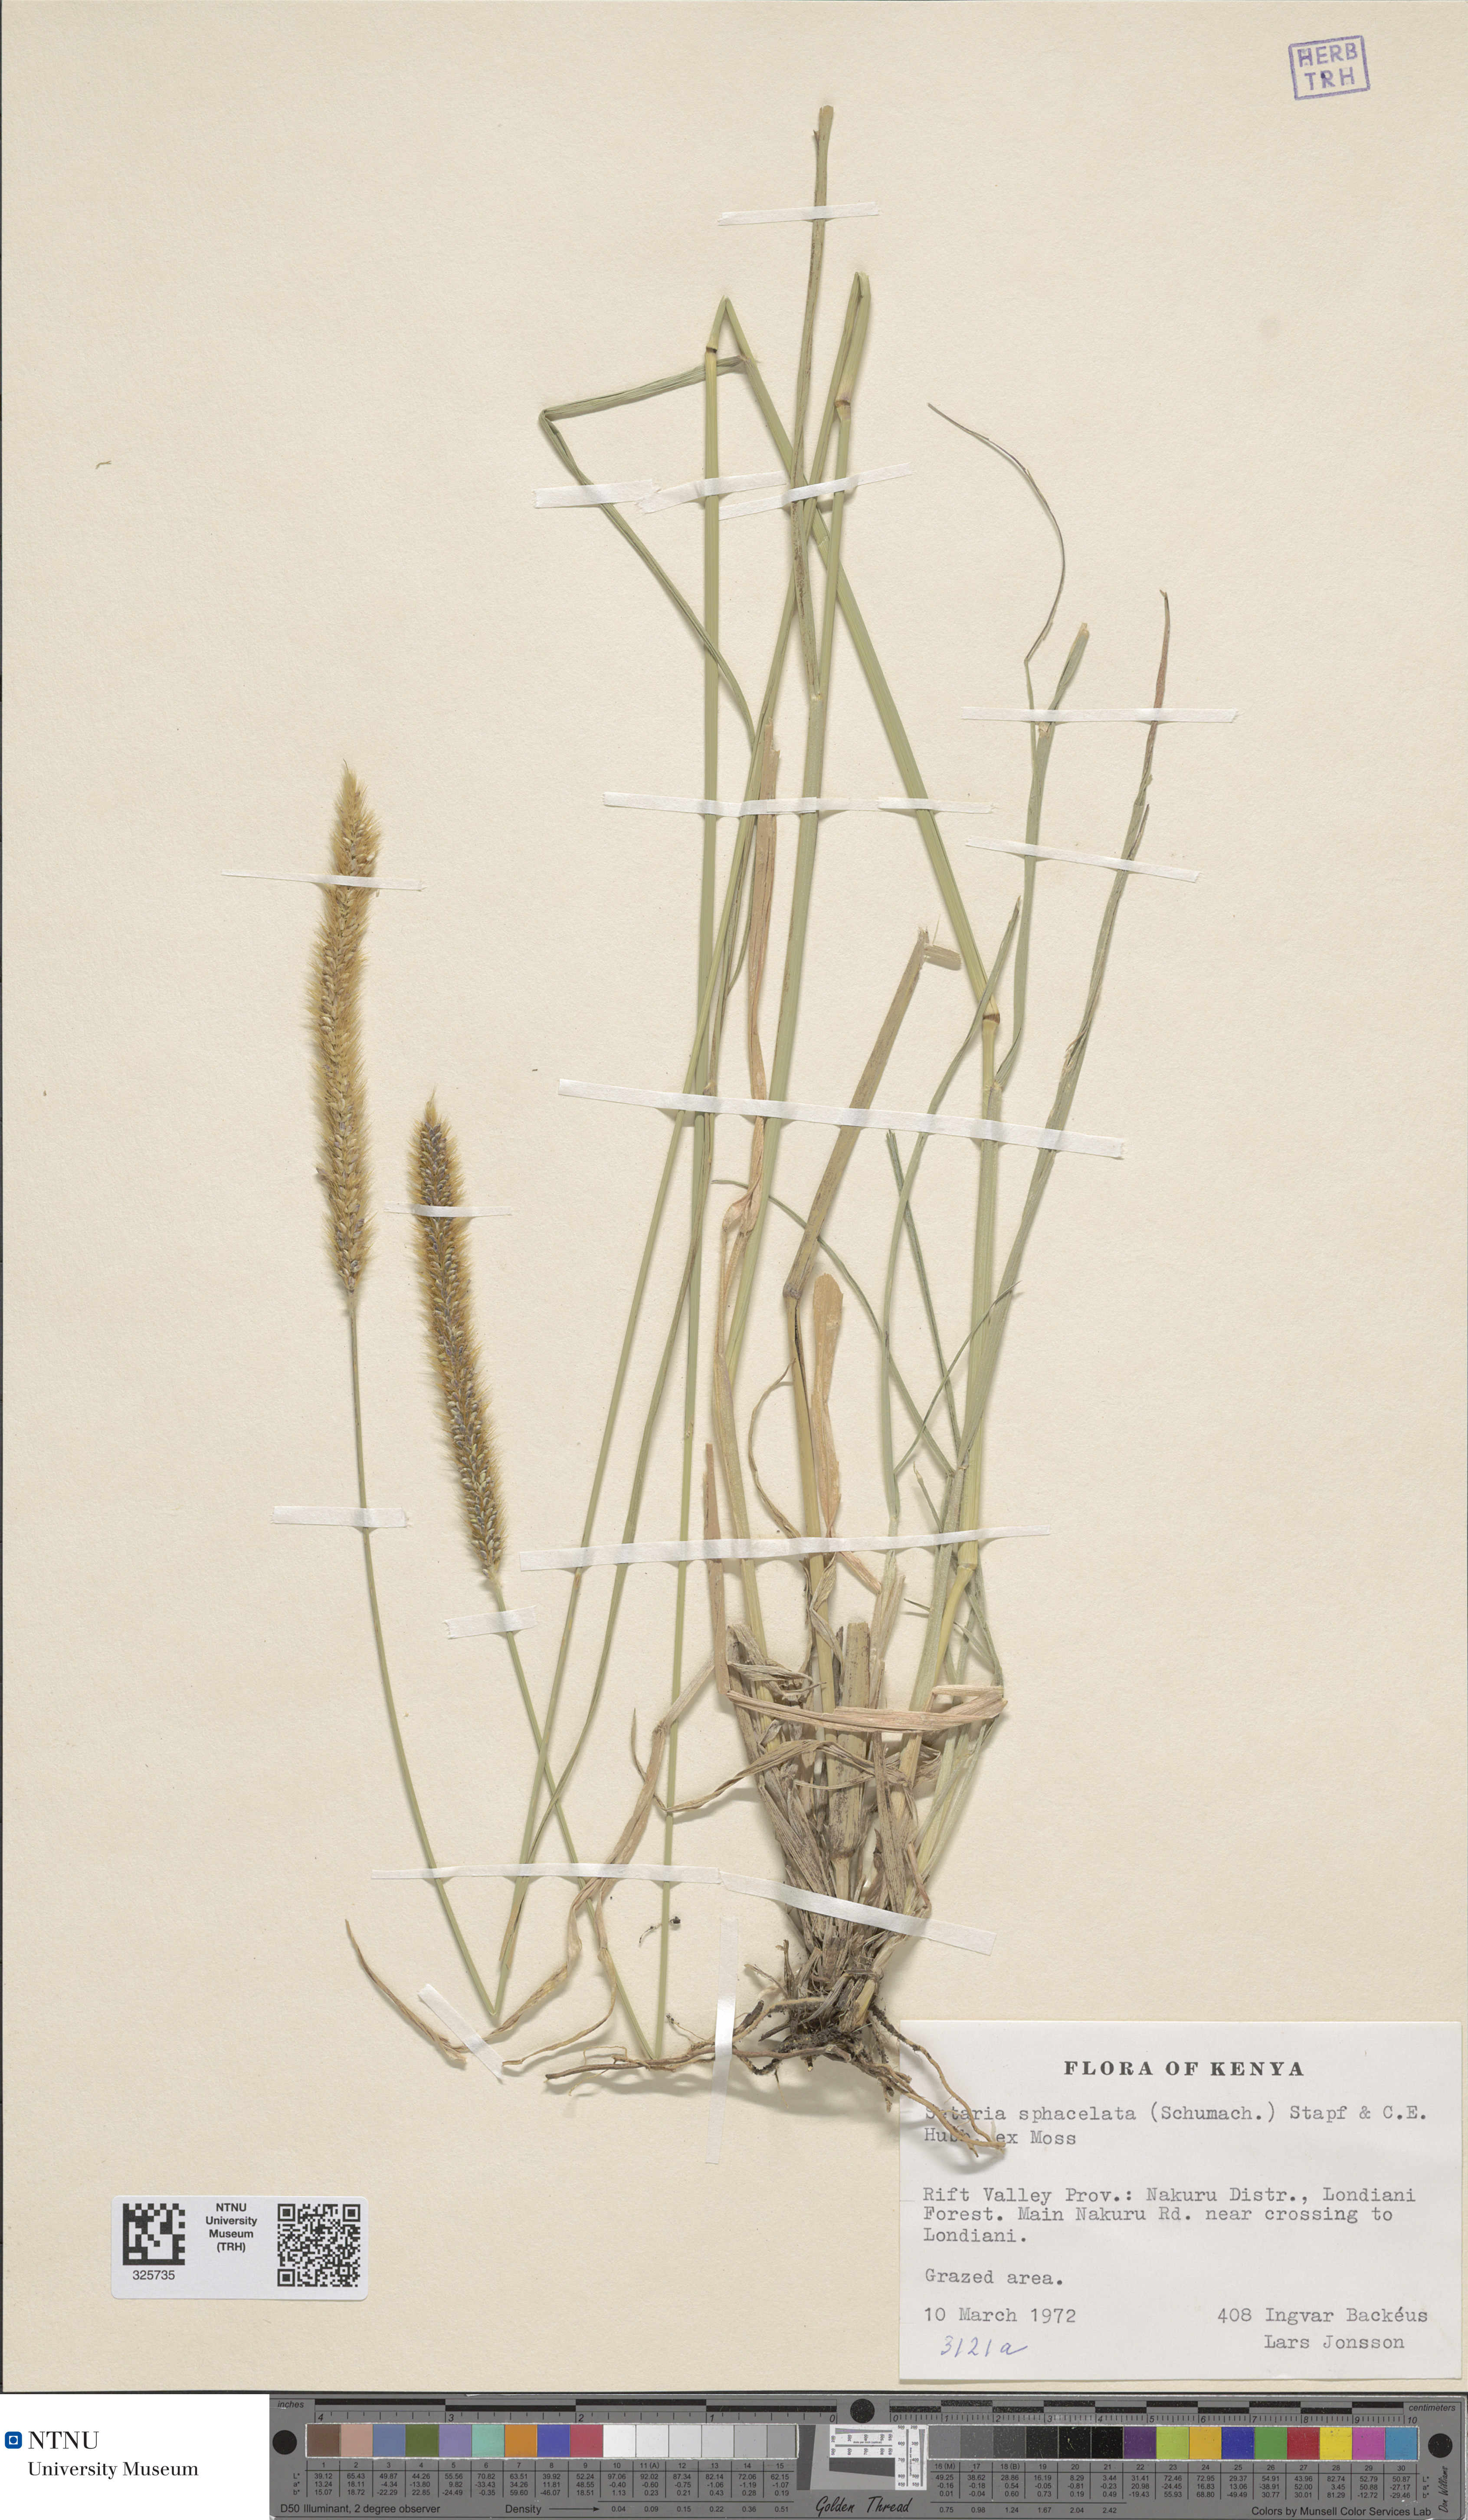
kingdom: Plantae
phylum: Tracheophyta
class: Liliopsida
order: Poales
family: Poaceae
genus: Setaria
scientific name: Setaria sphacelata
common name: African bristlegrass
